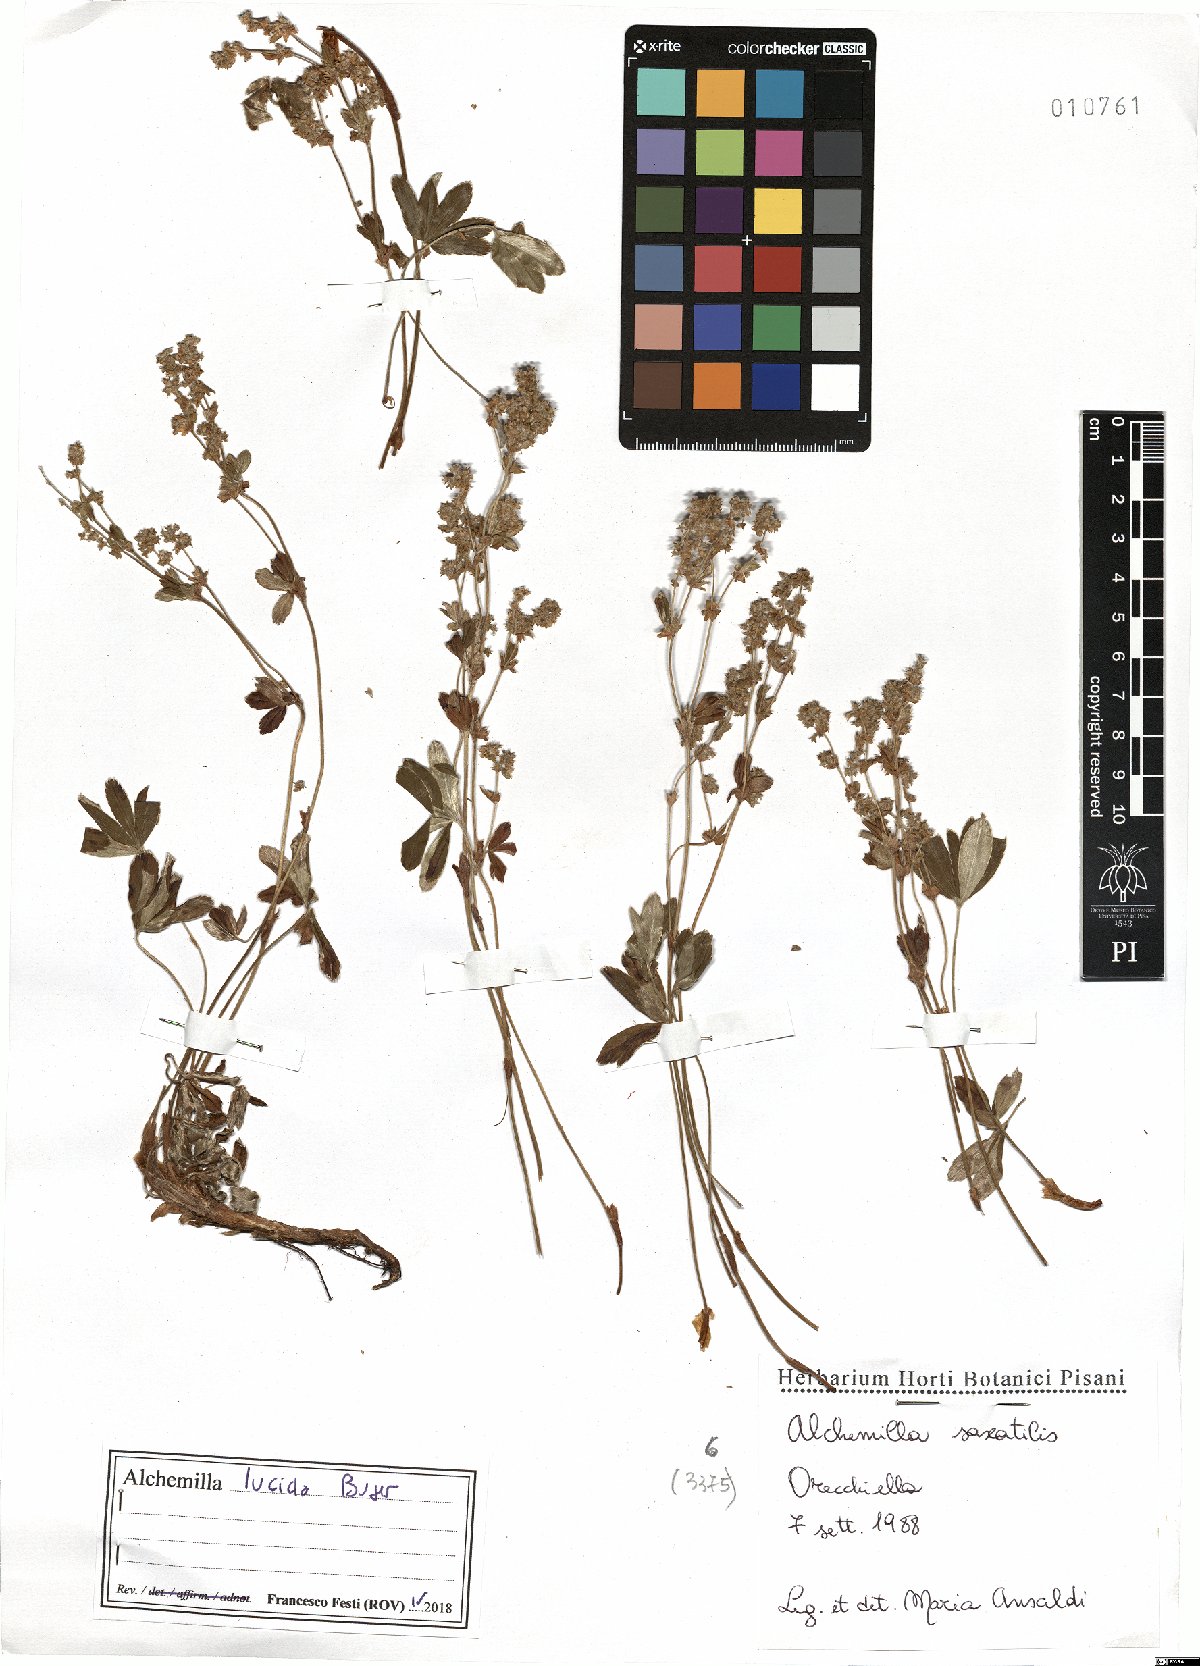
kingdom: Plantae
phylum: Tracheophyta
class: Magnoliopsida
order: Rosales
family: Rosaceae
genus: Alchemilla
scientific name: Alchemilla lucida
